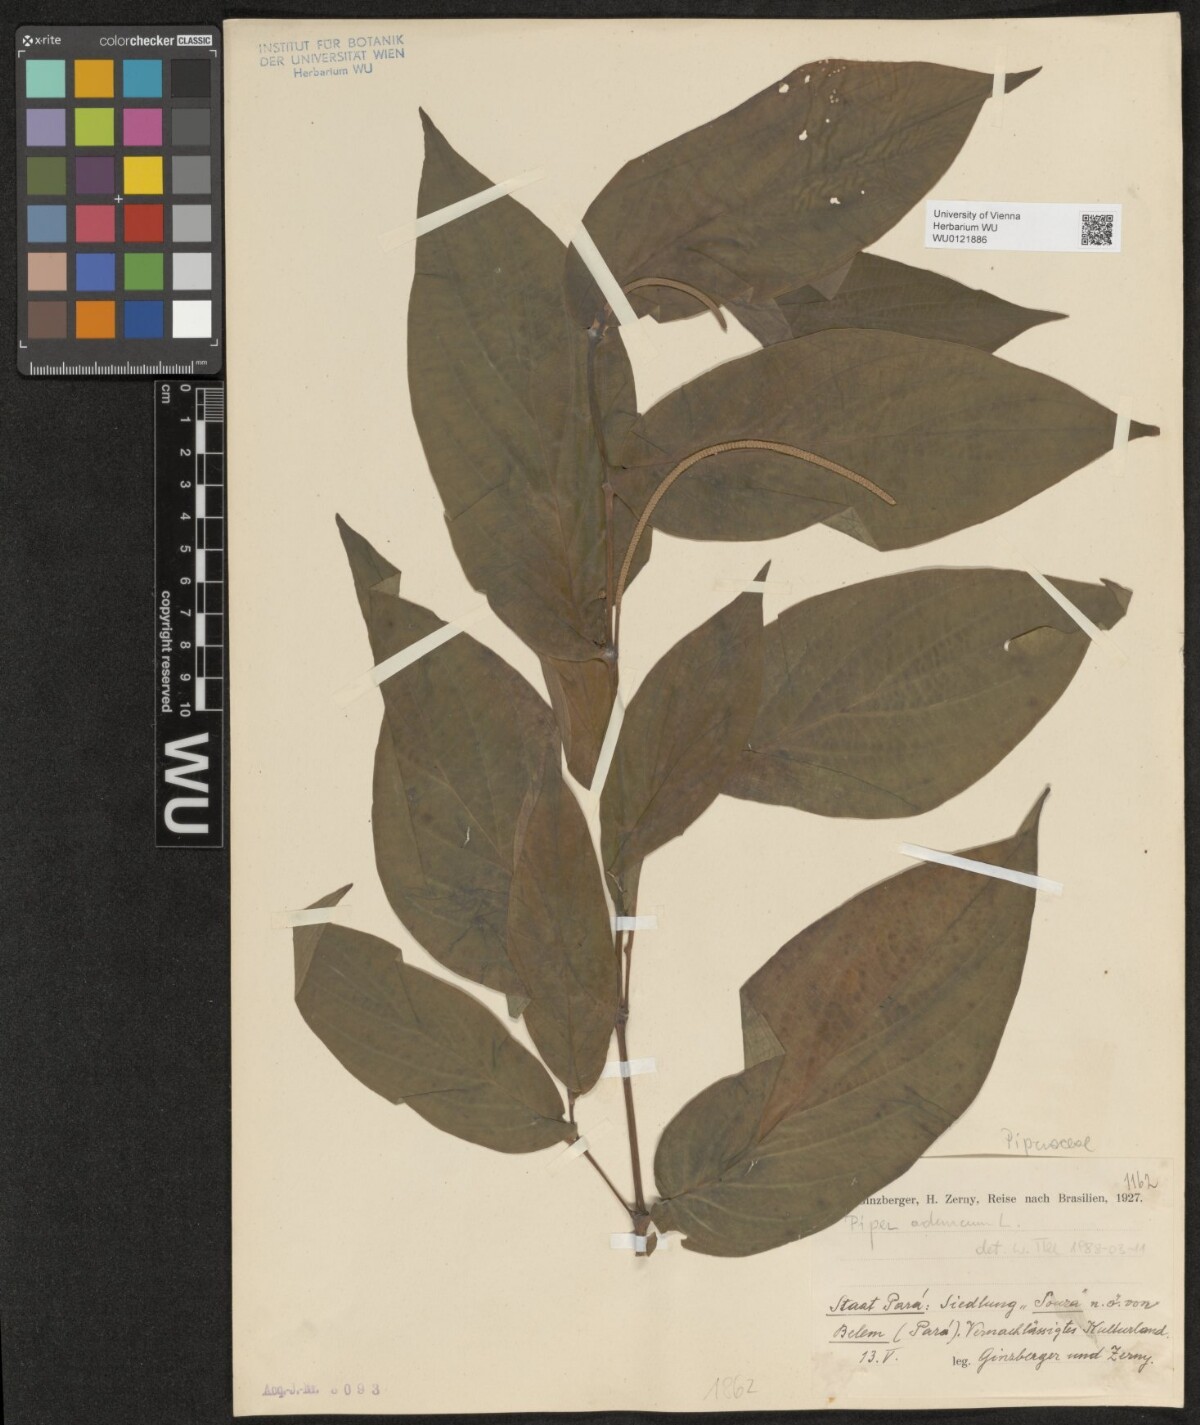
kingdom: Plantae
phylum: Tracheophyta
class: Magnoliopsida
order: Piperales
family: Piperaceae
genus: Piper
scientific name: Piper aduncum
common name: Spiked pepper
